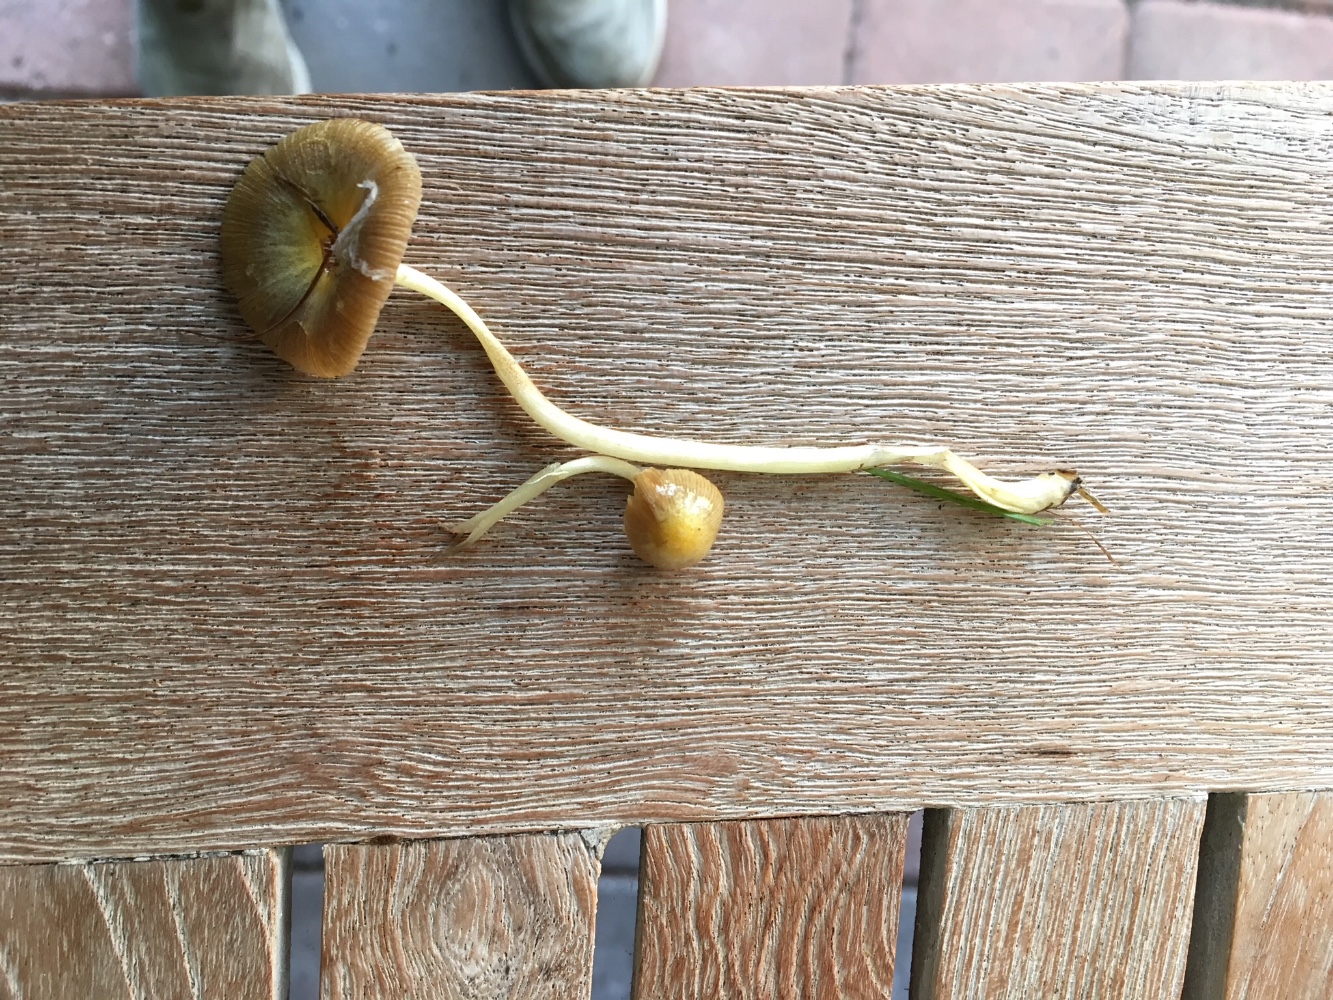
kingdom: Fungi
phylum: Basidiomycota
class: Agaricomycetes
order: Agaricales
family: Bolbitiaceae
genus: Bolbitius
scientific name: Bolbitius titubans
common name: almindelig gulhat
